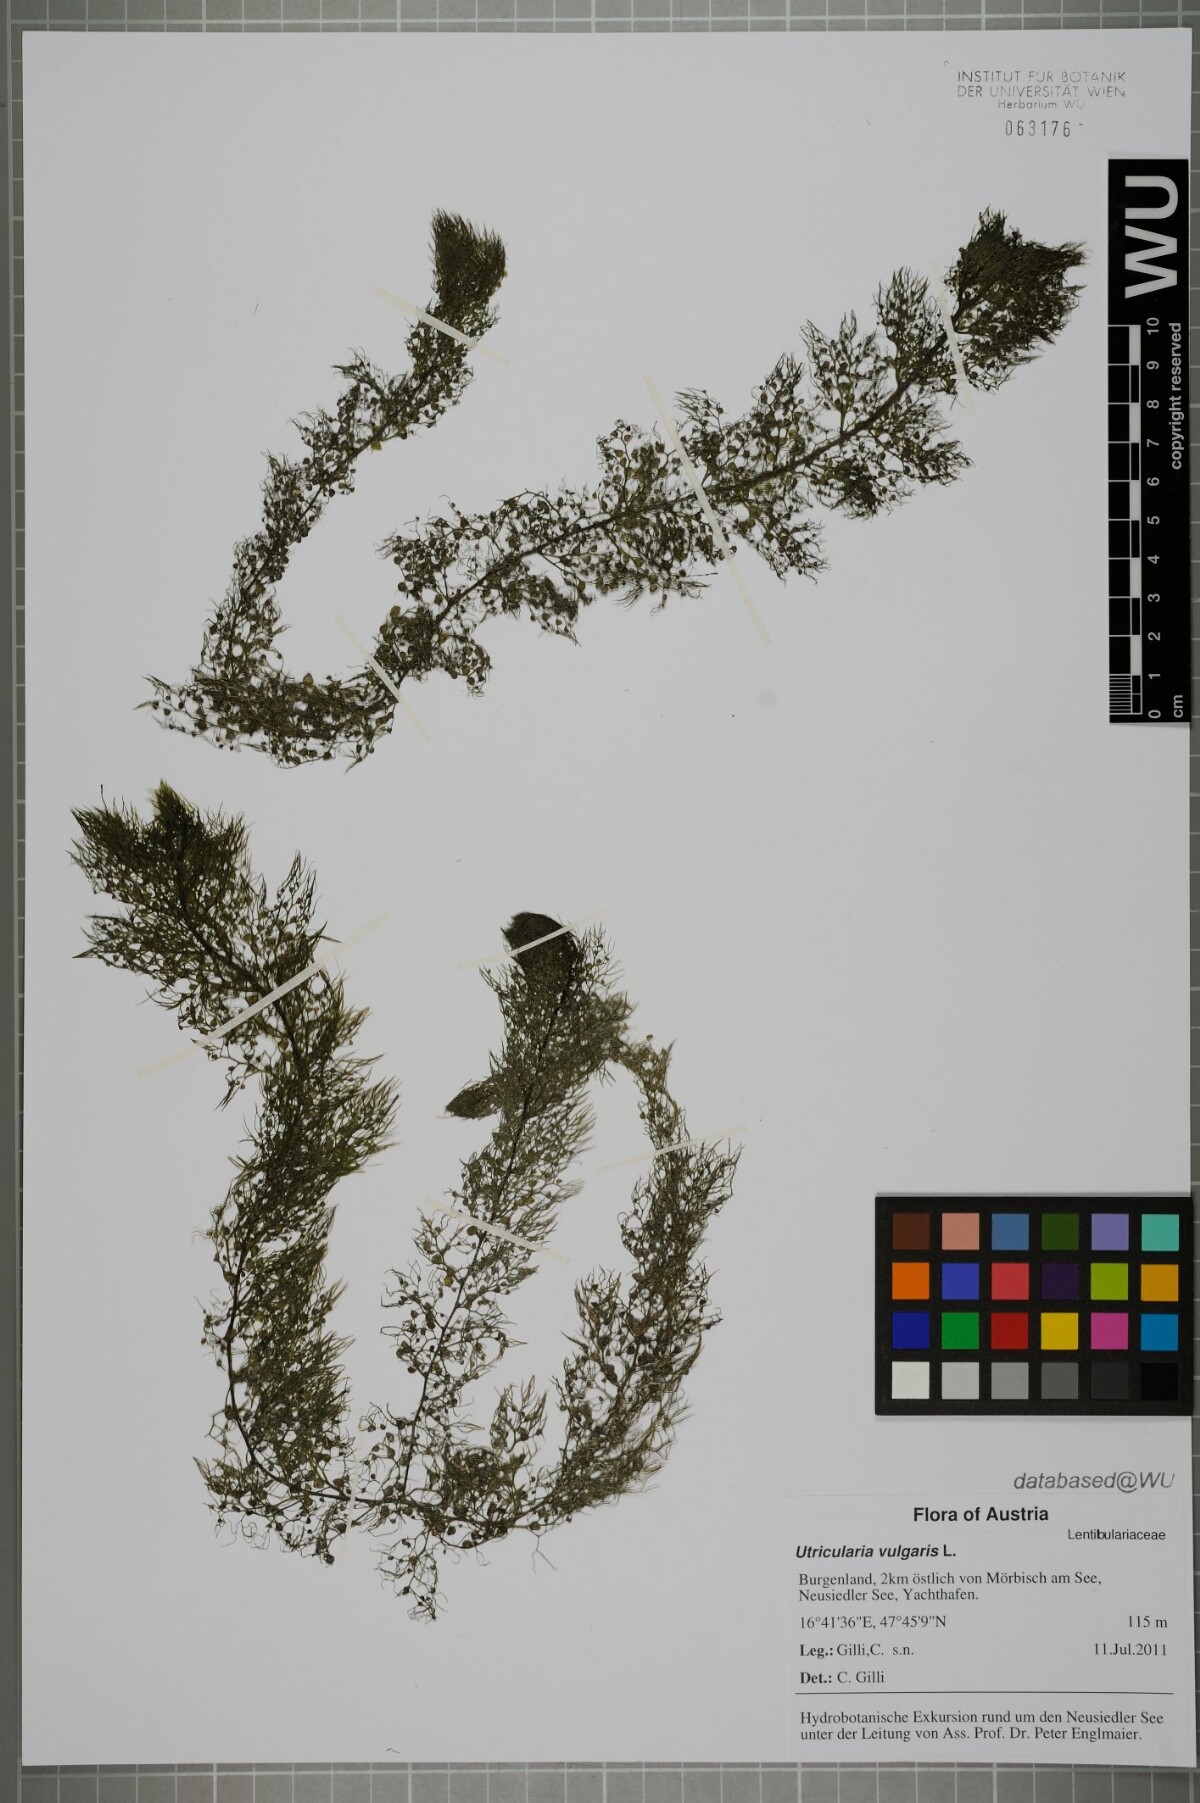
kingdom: Plantae
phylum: Tracheophyta
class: Magnoliopsida
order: Lamiales
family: Lentibulariaceae
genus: Utricularia
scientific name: Utricularia vulgaris
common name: Greater bladderwort
